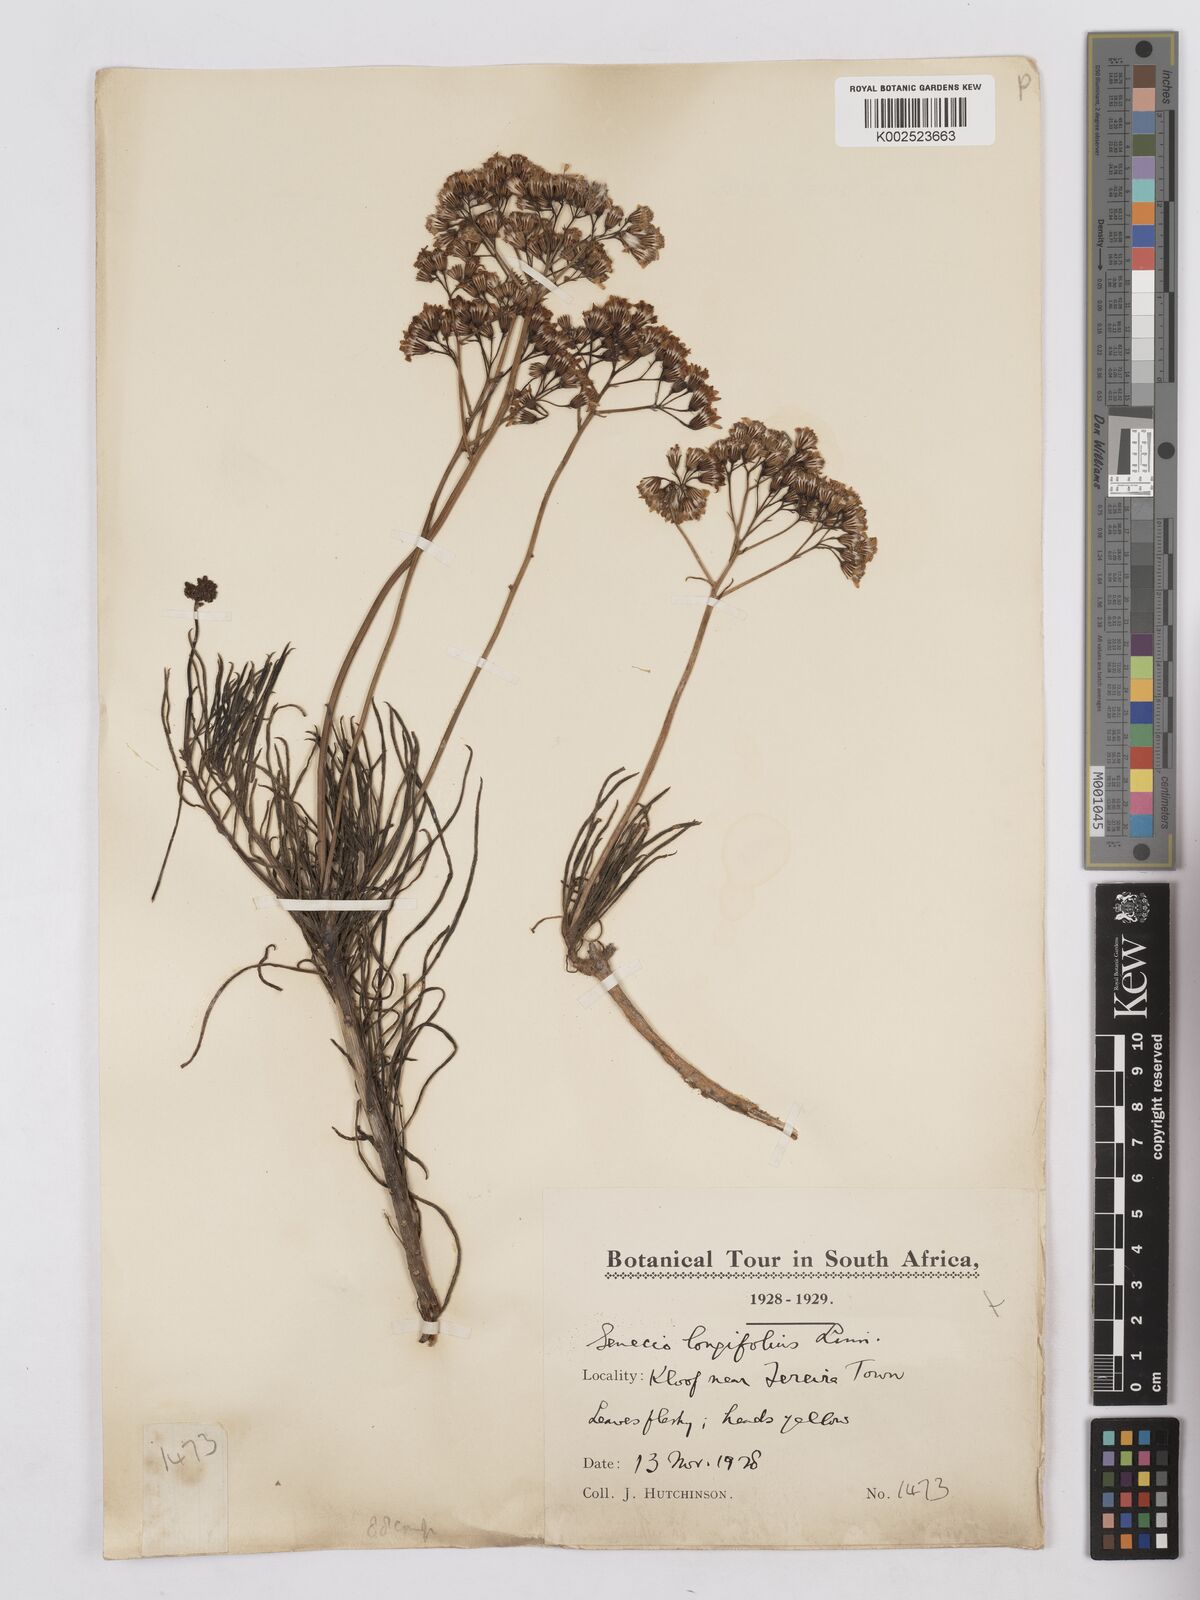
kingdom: Plantae
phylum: Tracheophyta
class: Magnoliopsida
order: Asterales
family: Asteraceae
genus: Senecio
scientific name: Senecio linifolius
